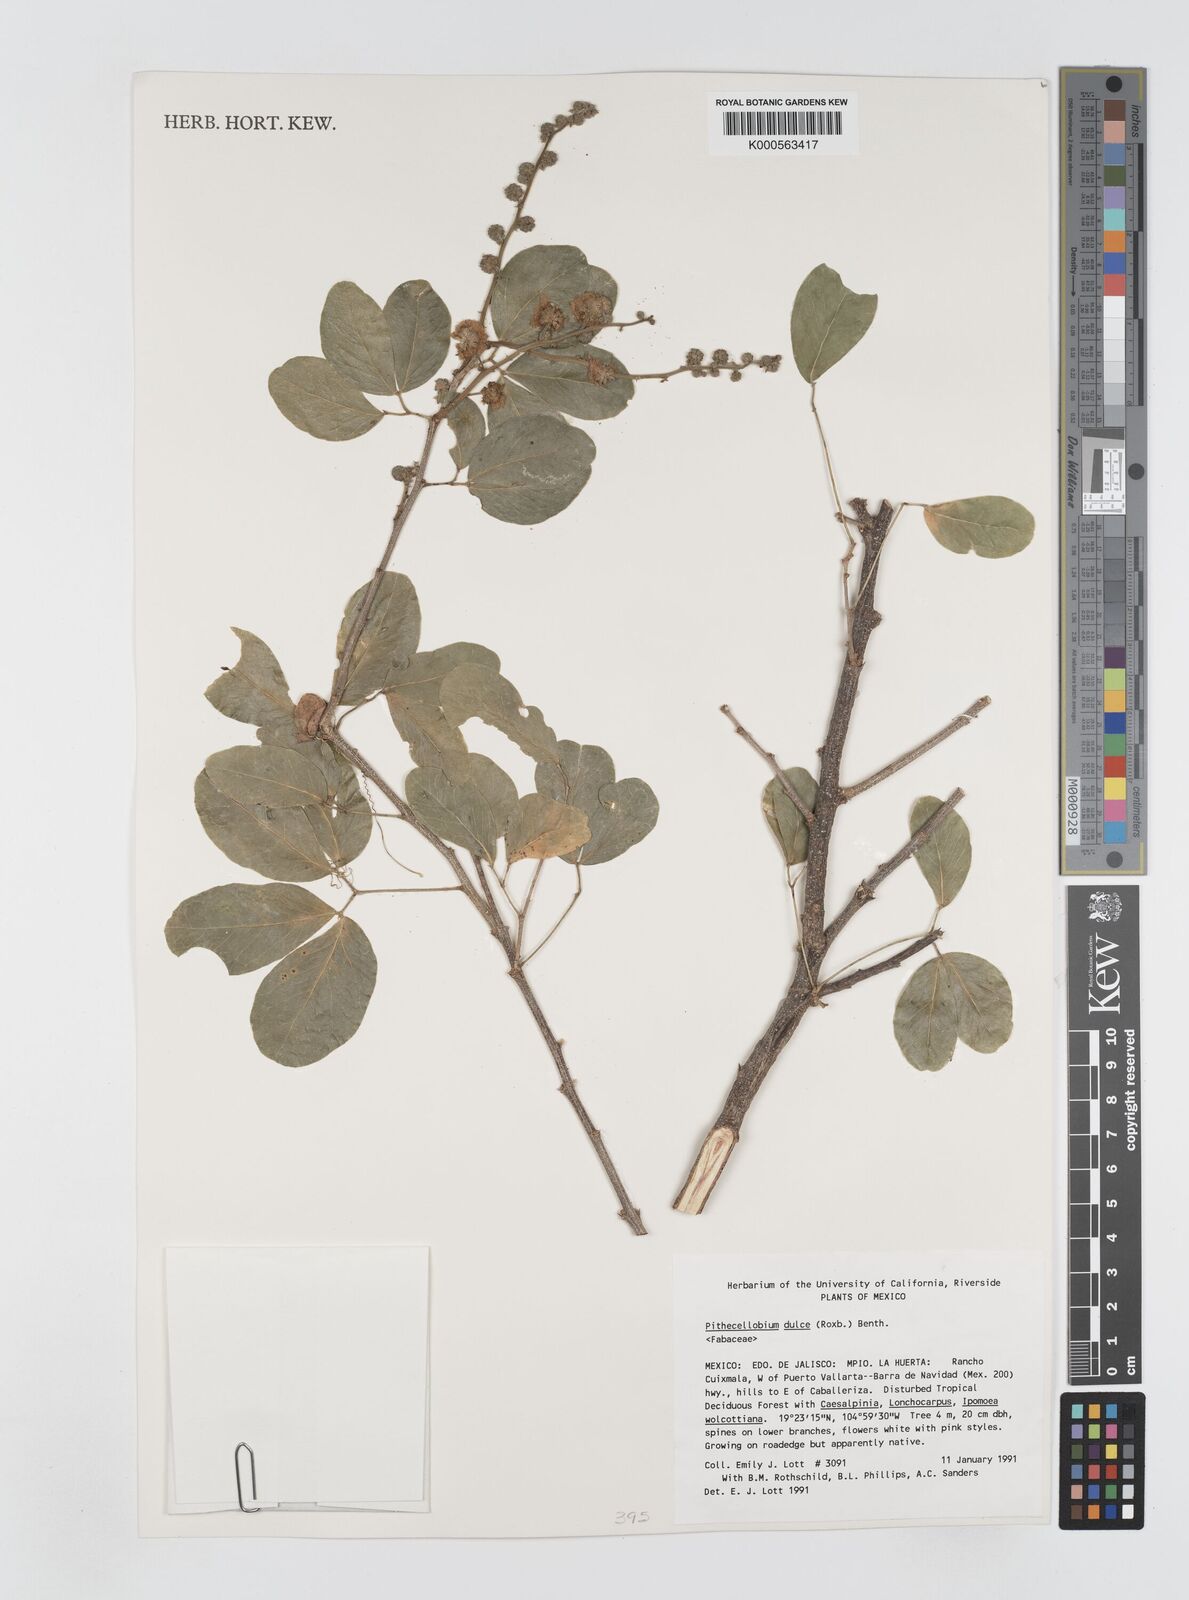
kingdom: Plantae
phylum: Tracheophyta
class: Magnoliopsida
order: Fabales
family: Fabaceae
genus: Pithecellobium
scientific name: Pithecellobium dulce
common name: Monkeypod
